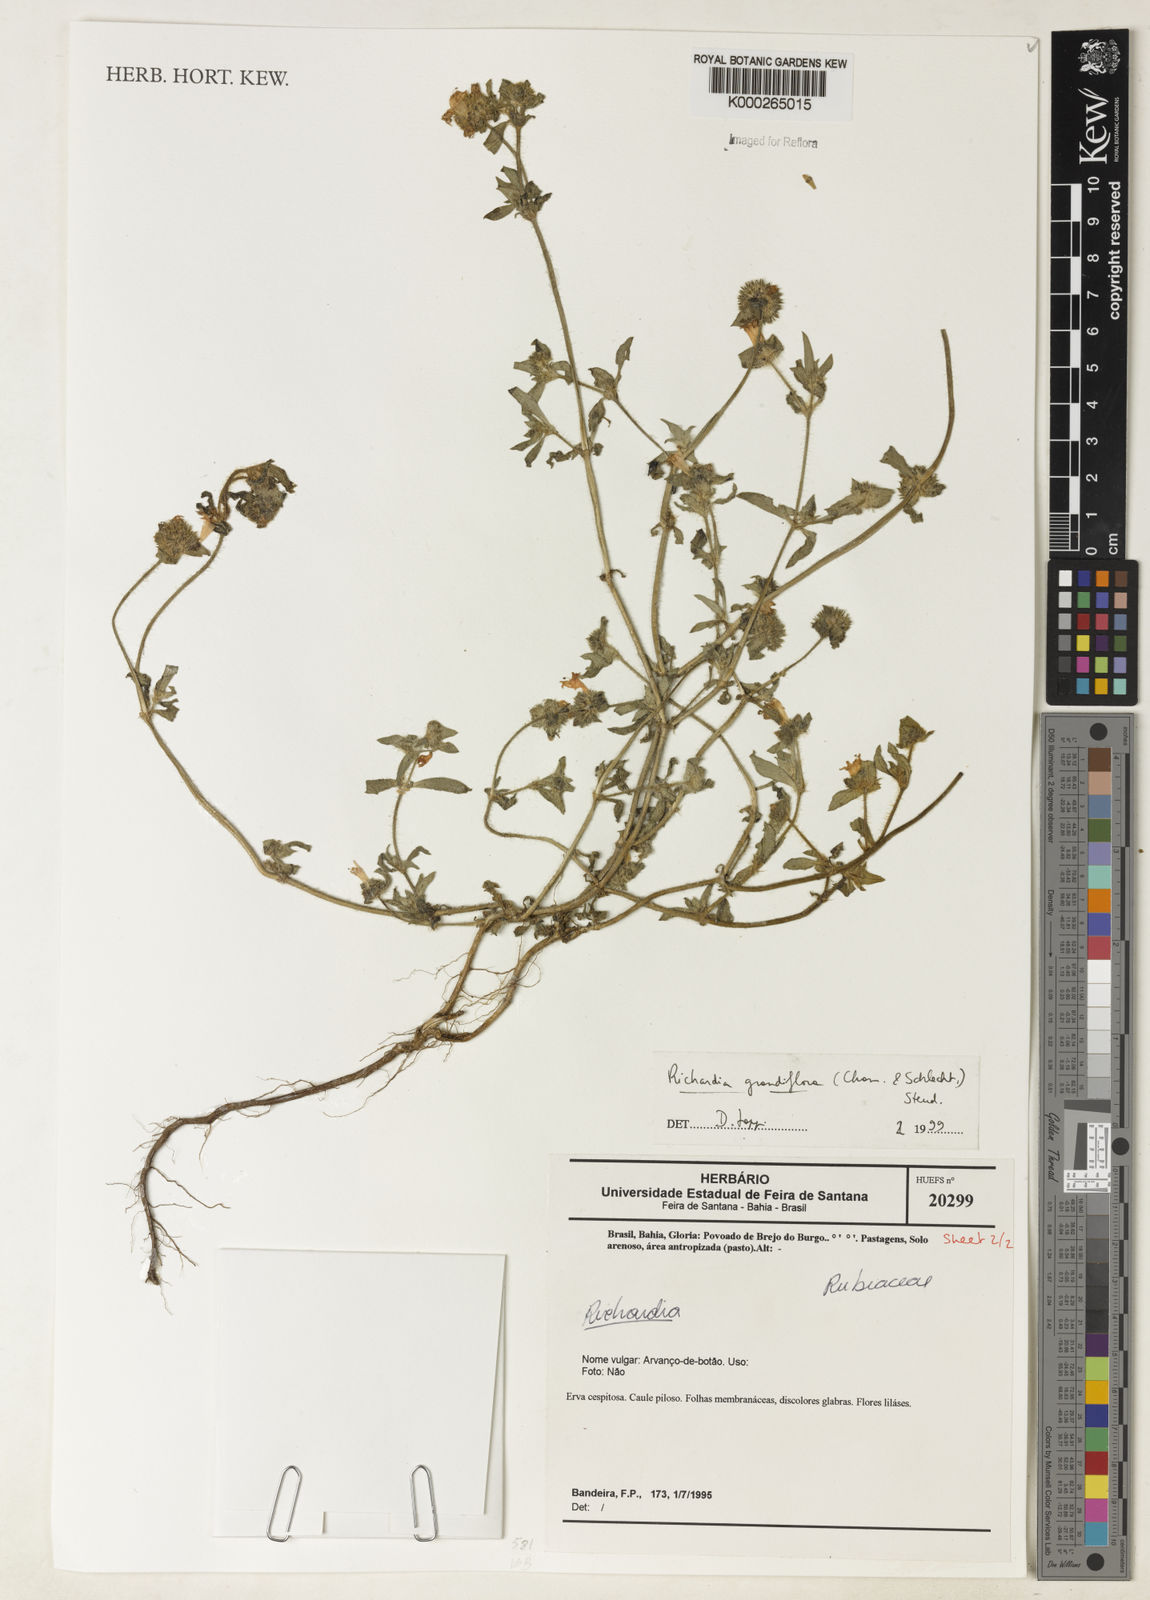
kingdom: Plantae
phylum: Tracheophyta
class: Magnoliopsida
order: Gentianales
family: Rubiaceae
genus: Richardia
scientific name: Richardia grandiflora
